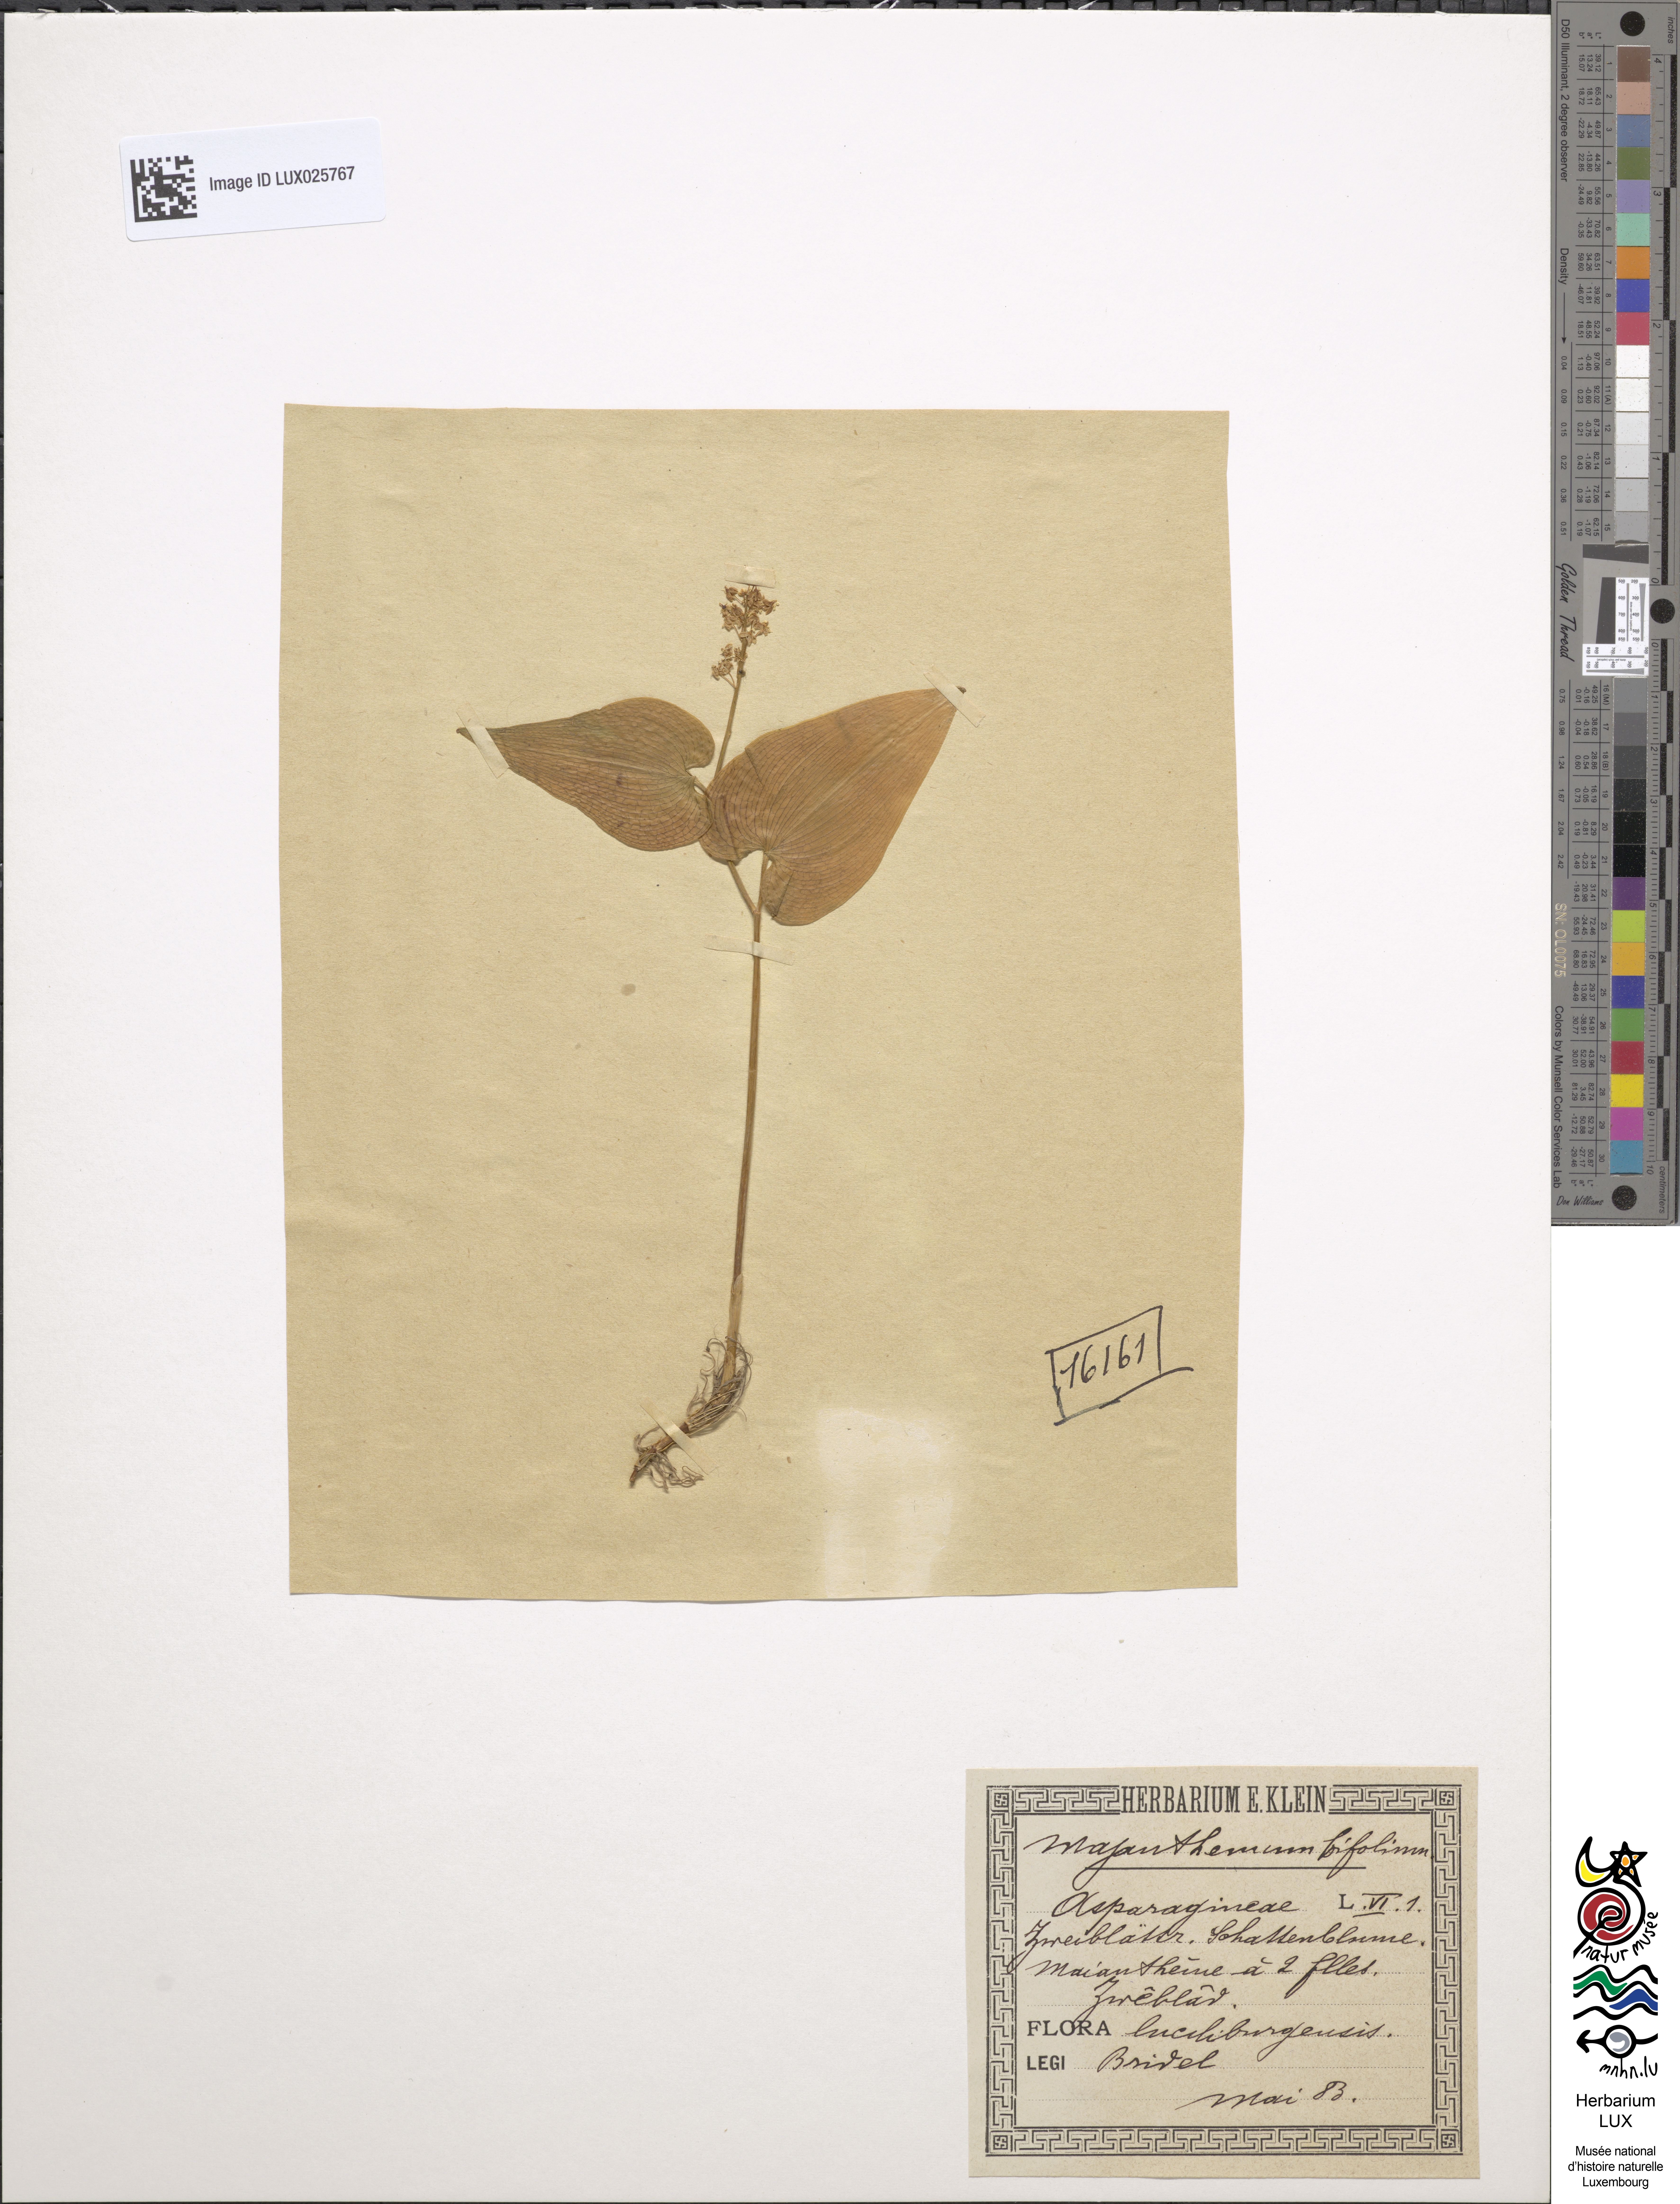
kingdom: Plantae
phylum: Tracheophyta
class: Liliopsida
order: Asparagales
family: Asparagaceae
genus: Maianthemum
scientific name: Maianthemum bifolium
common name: May lily
